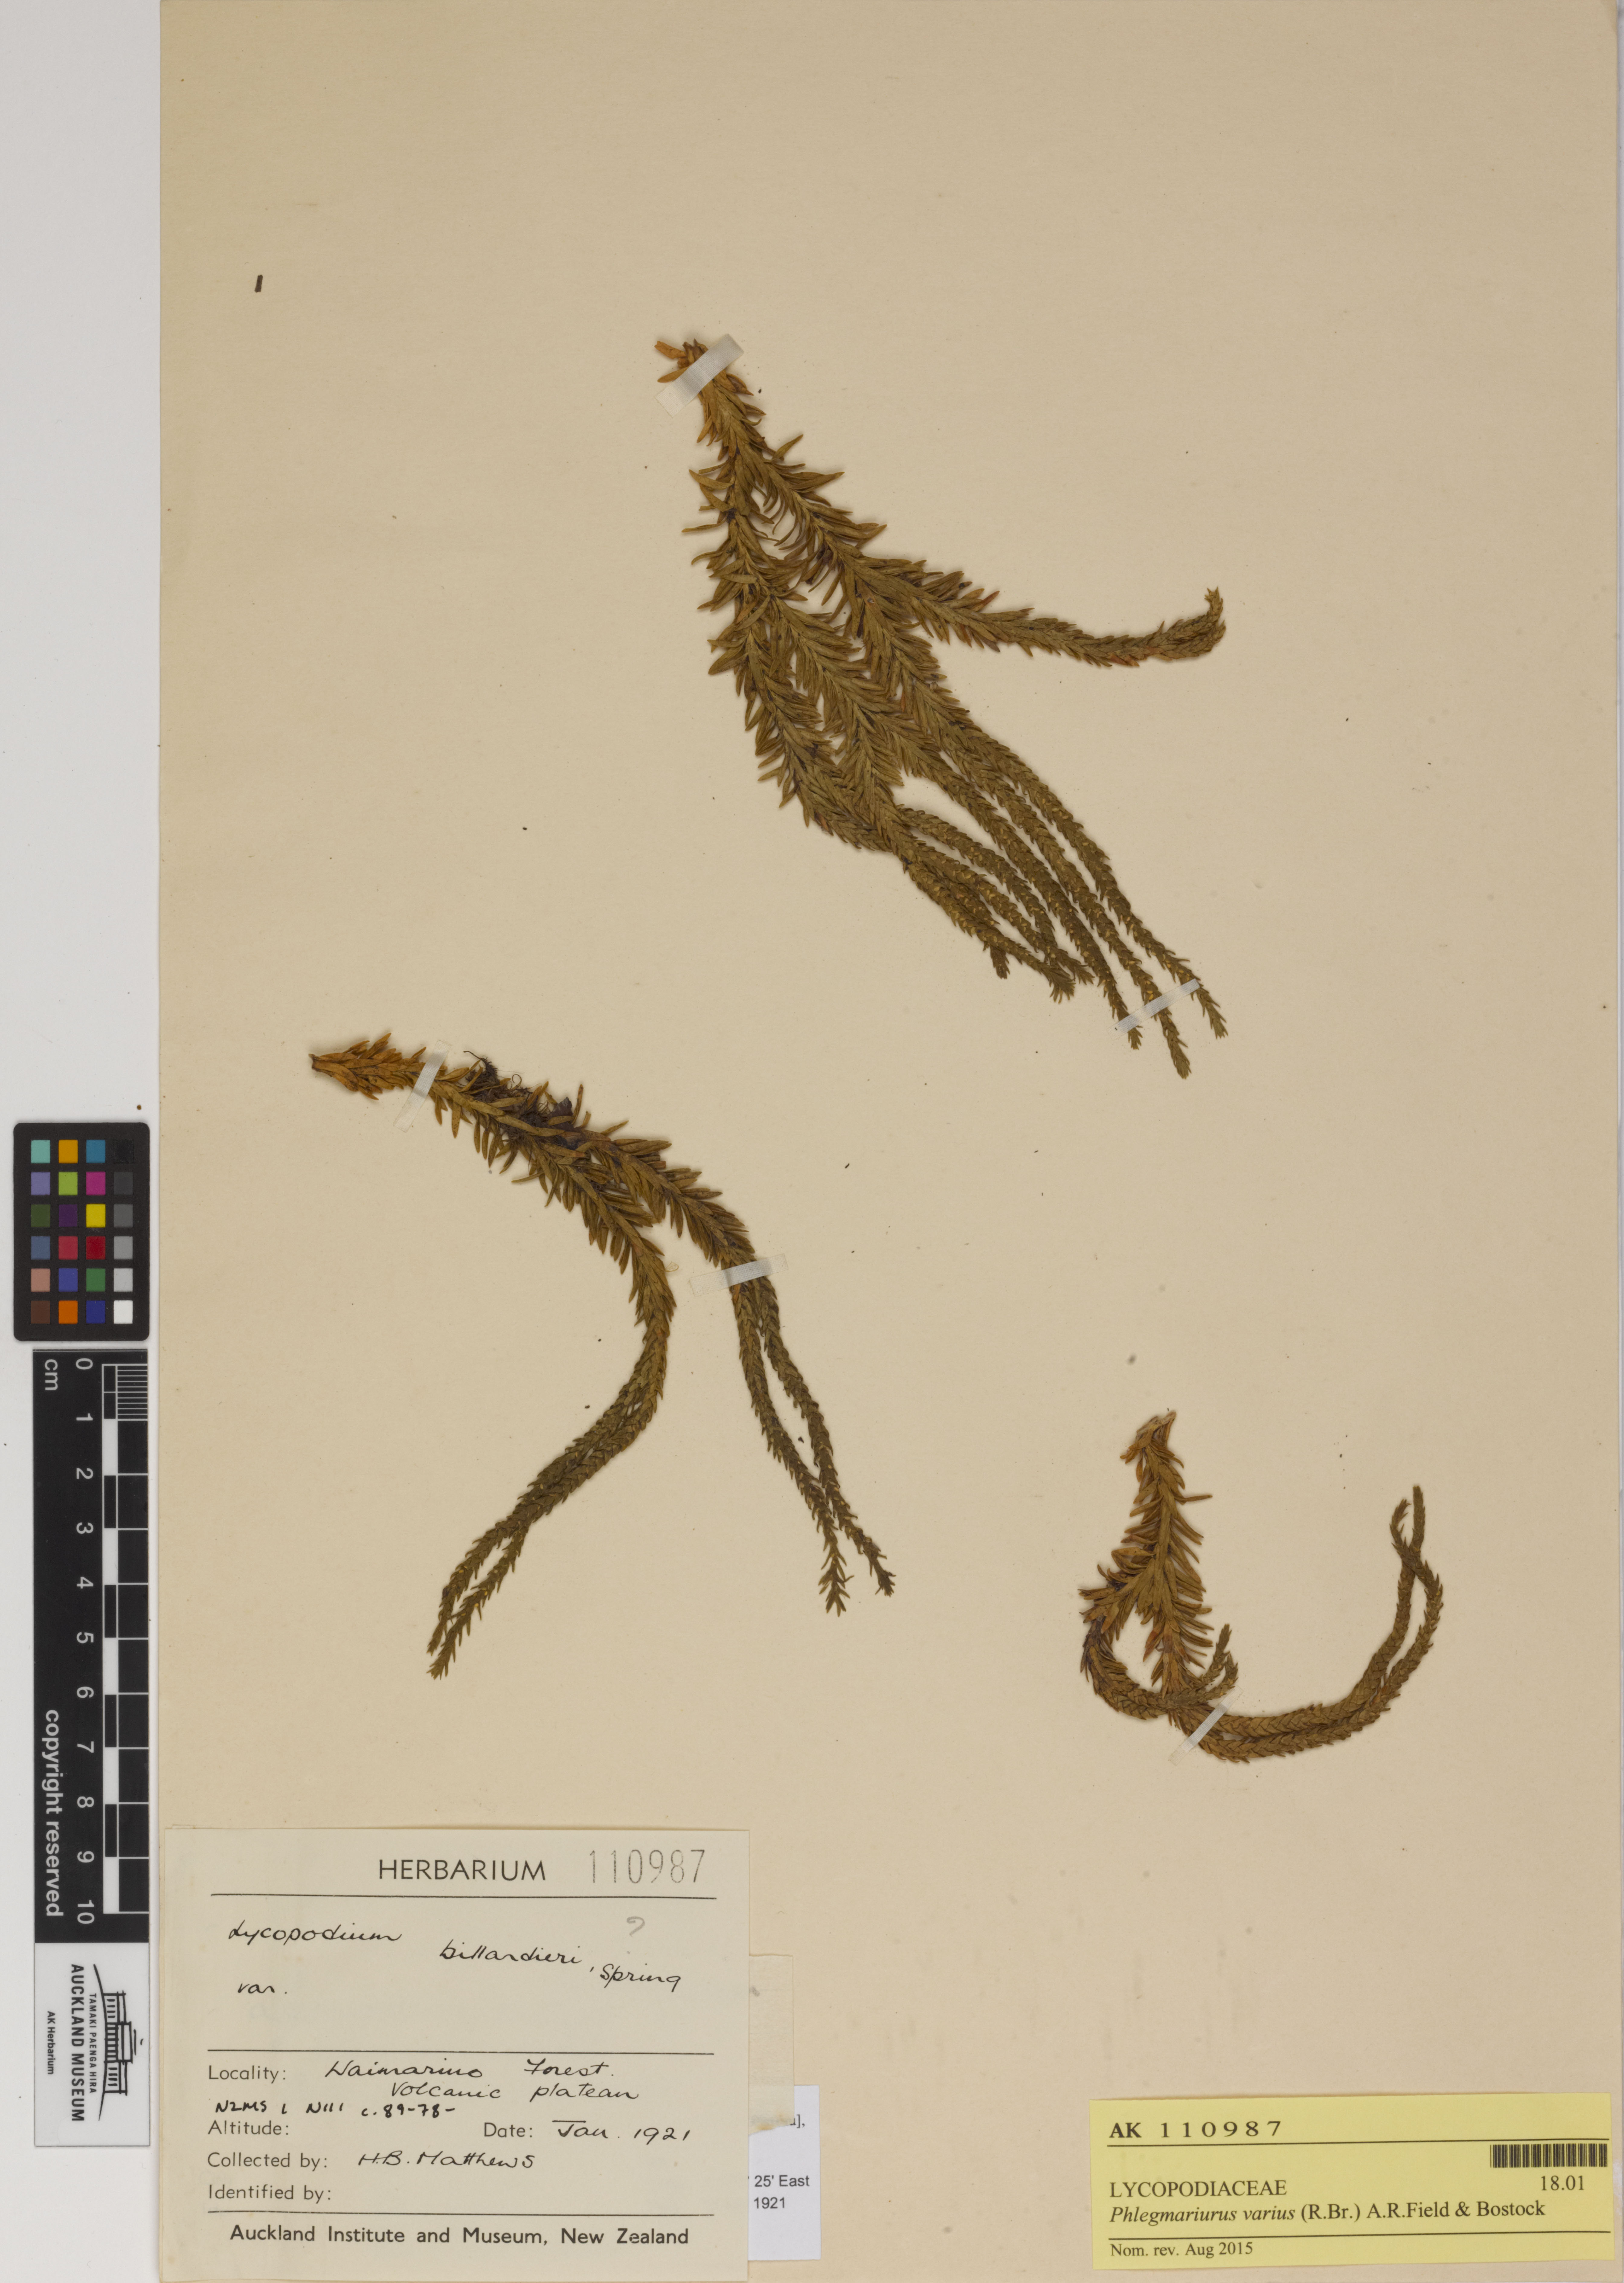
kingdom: Plantae
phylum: Tracheophyta
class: Lycopodiopsida
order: Lycopodiales
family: Lycopodiaceae
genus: Phlegmariurus
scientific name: Phlegmariurus varius
